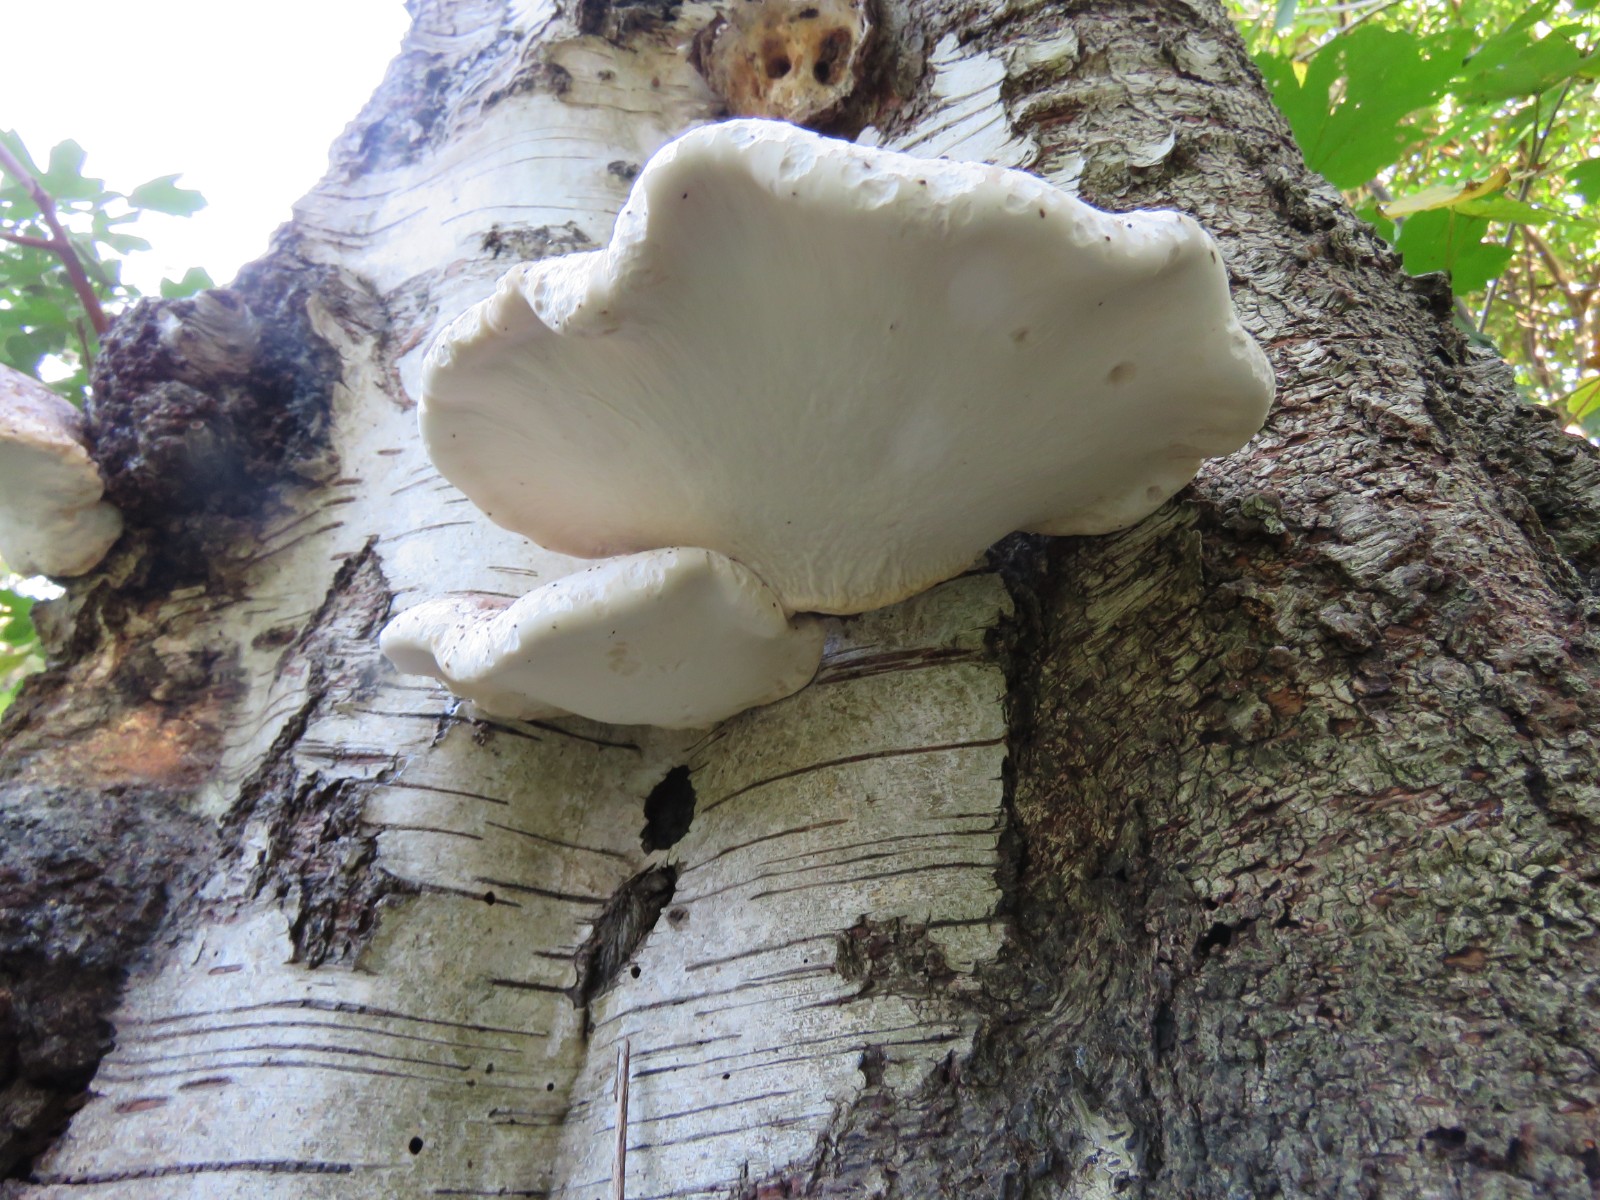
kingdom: Fungi
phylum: Basidiomycota
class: Agaricomycetes
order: Polyporales
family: Fomitopsidaceae
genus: Fomitopsis
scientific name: Fomitopsis betulina
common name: birkeporesvamp
